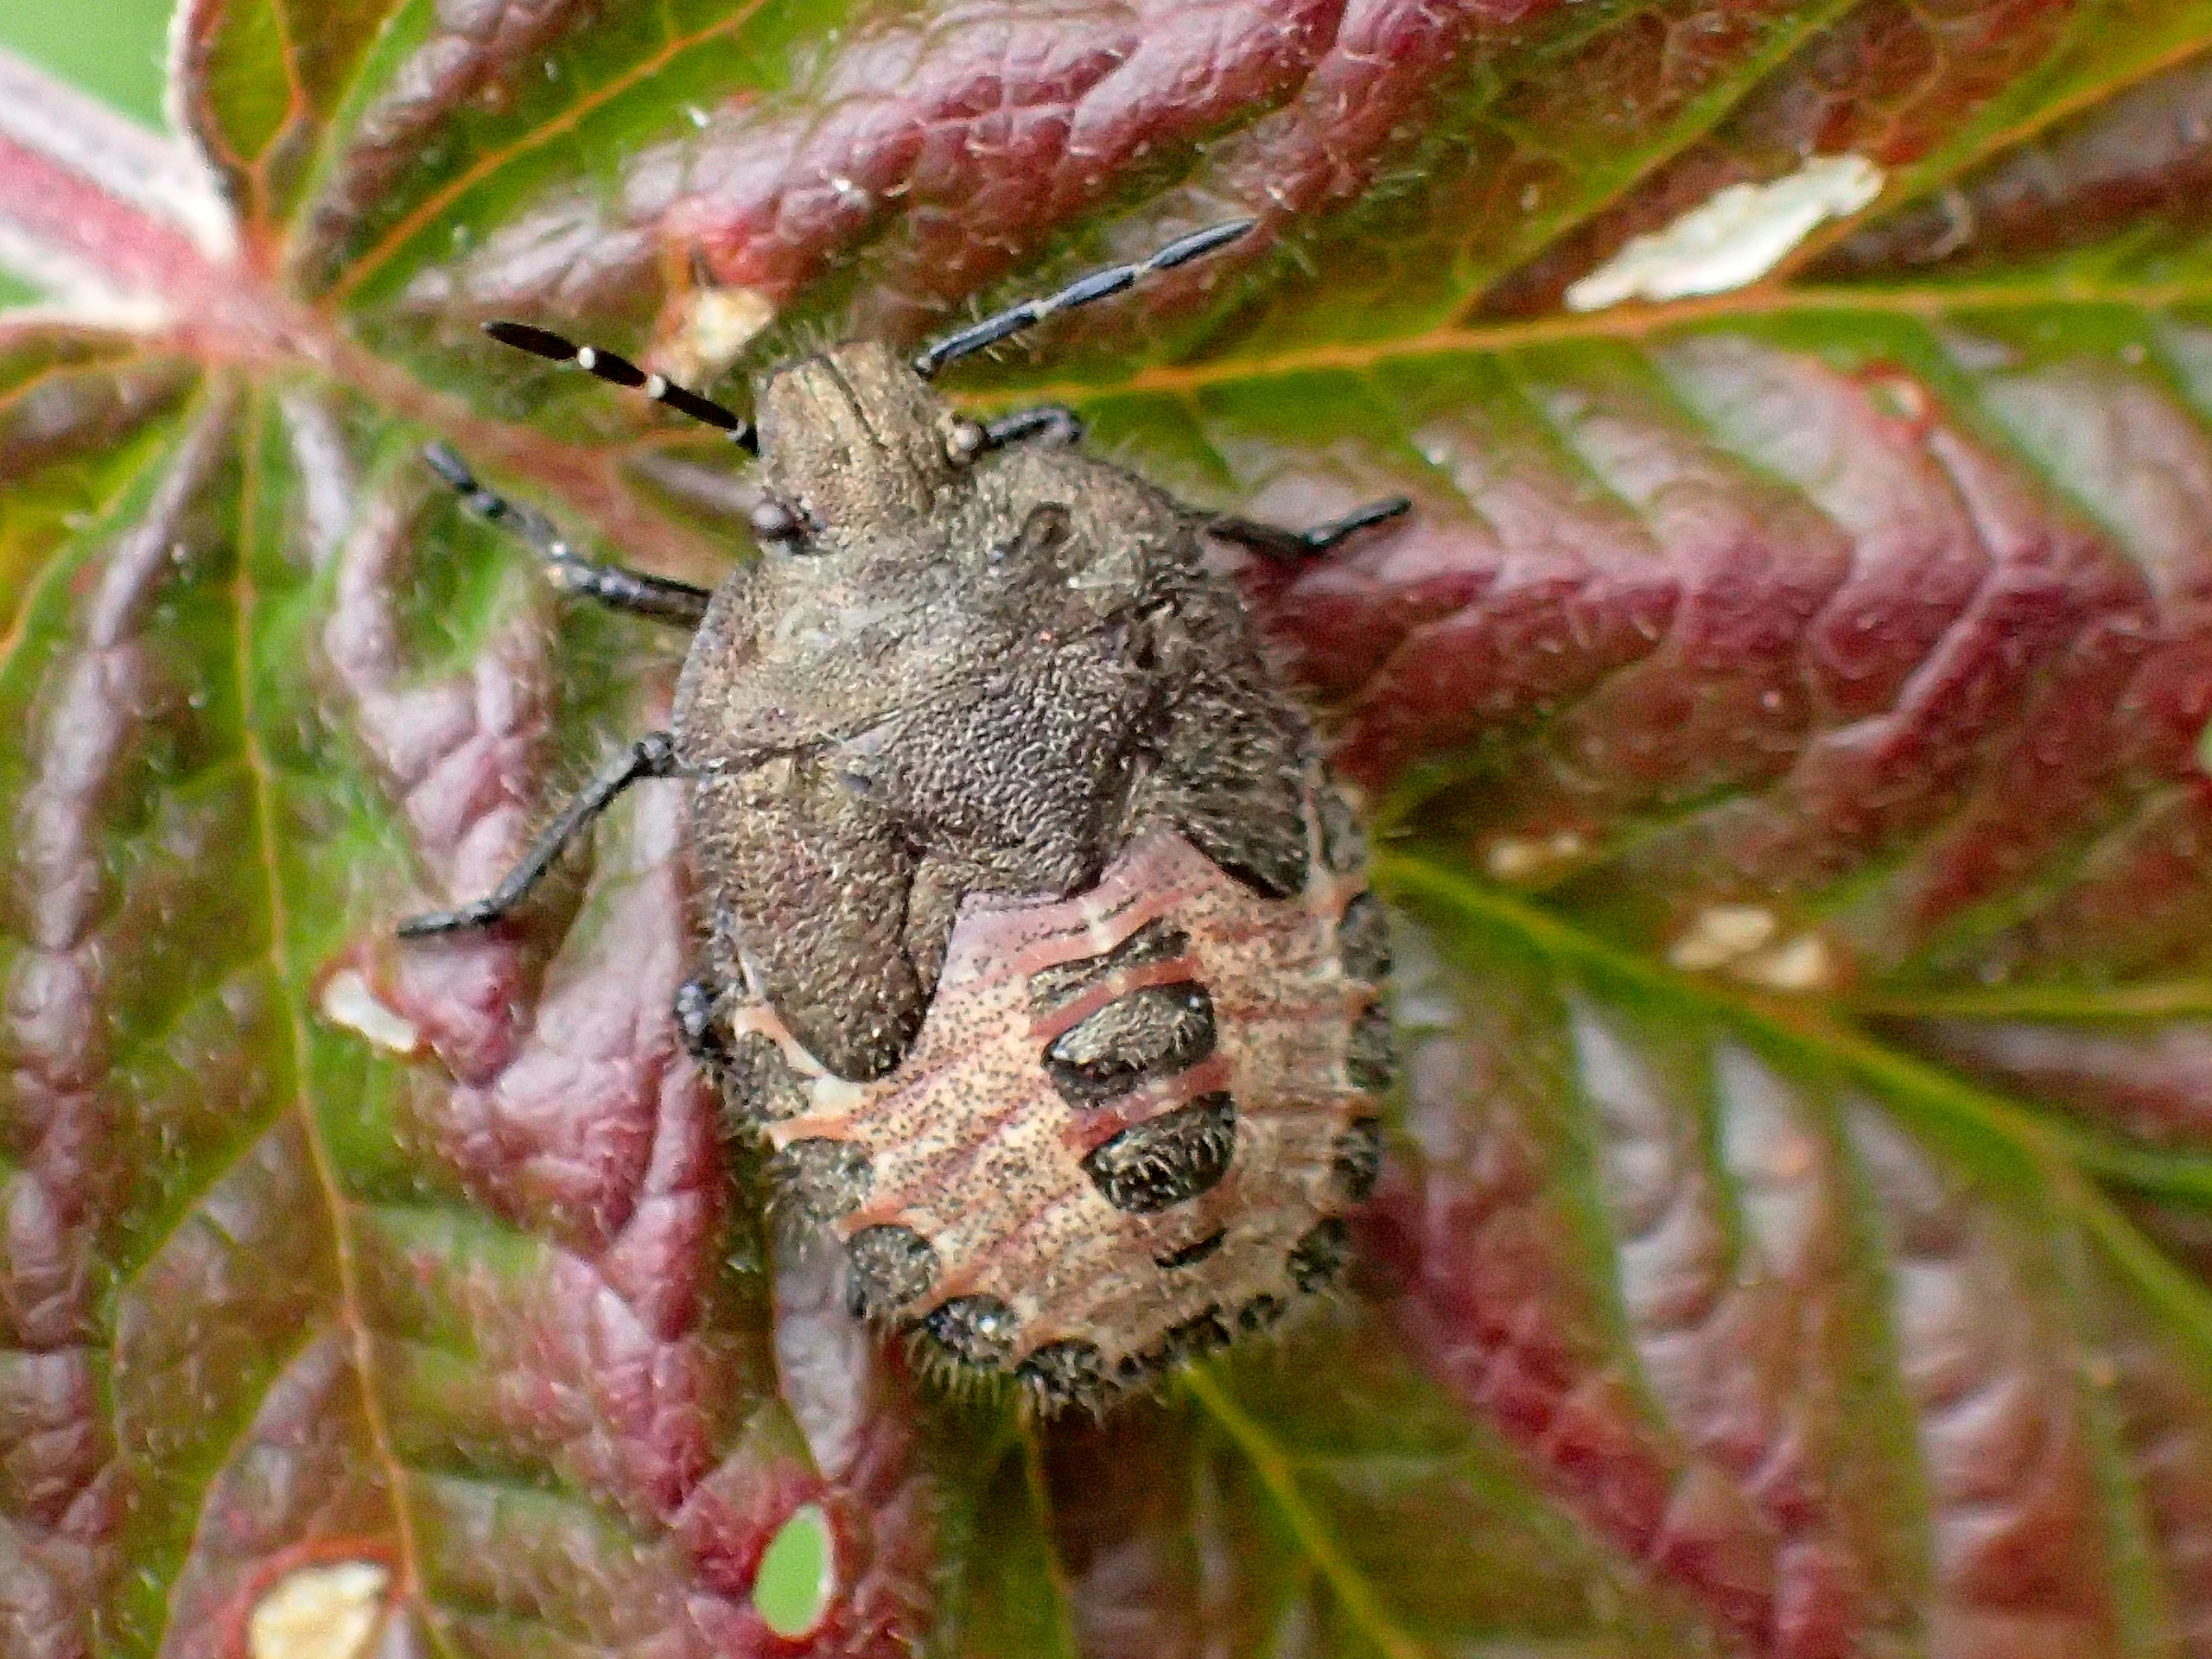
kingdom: Animalia
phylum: Arthropoda
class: Insecta
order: Hemiptera
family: Pentatomidae
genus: Dolycoris
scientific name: Dolycoris baccarum
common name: Almindelig bærtæge
